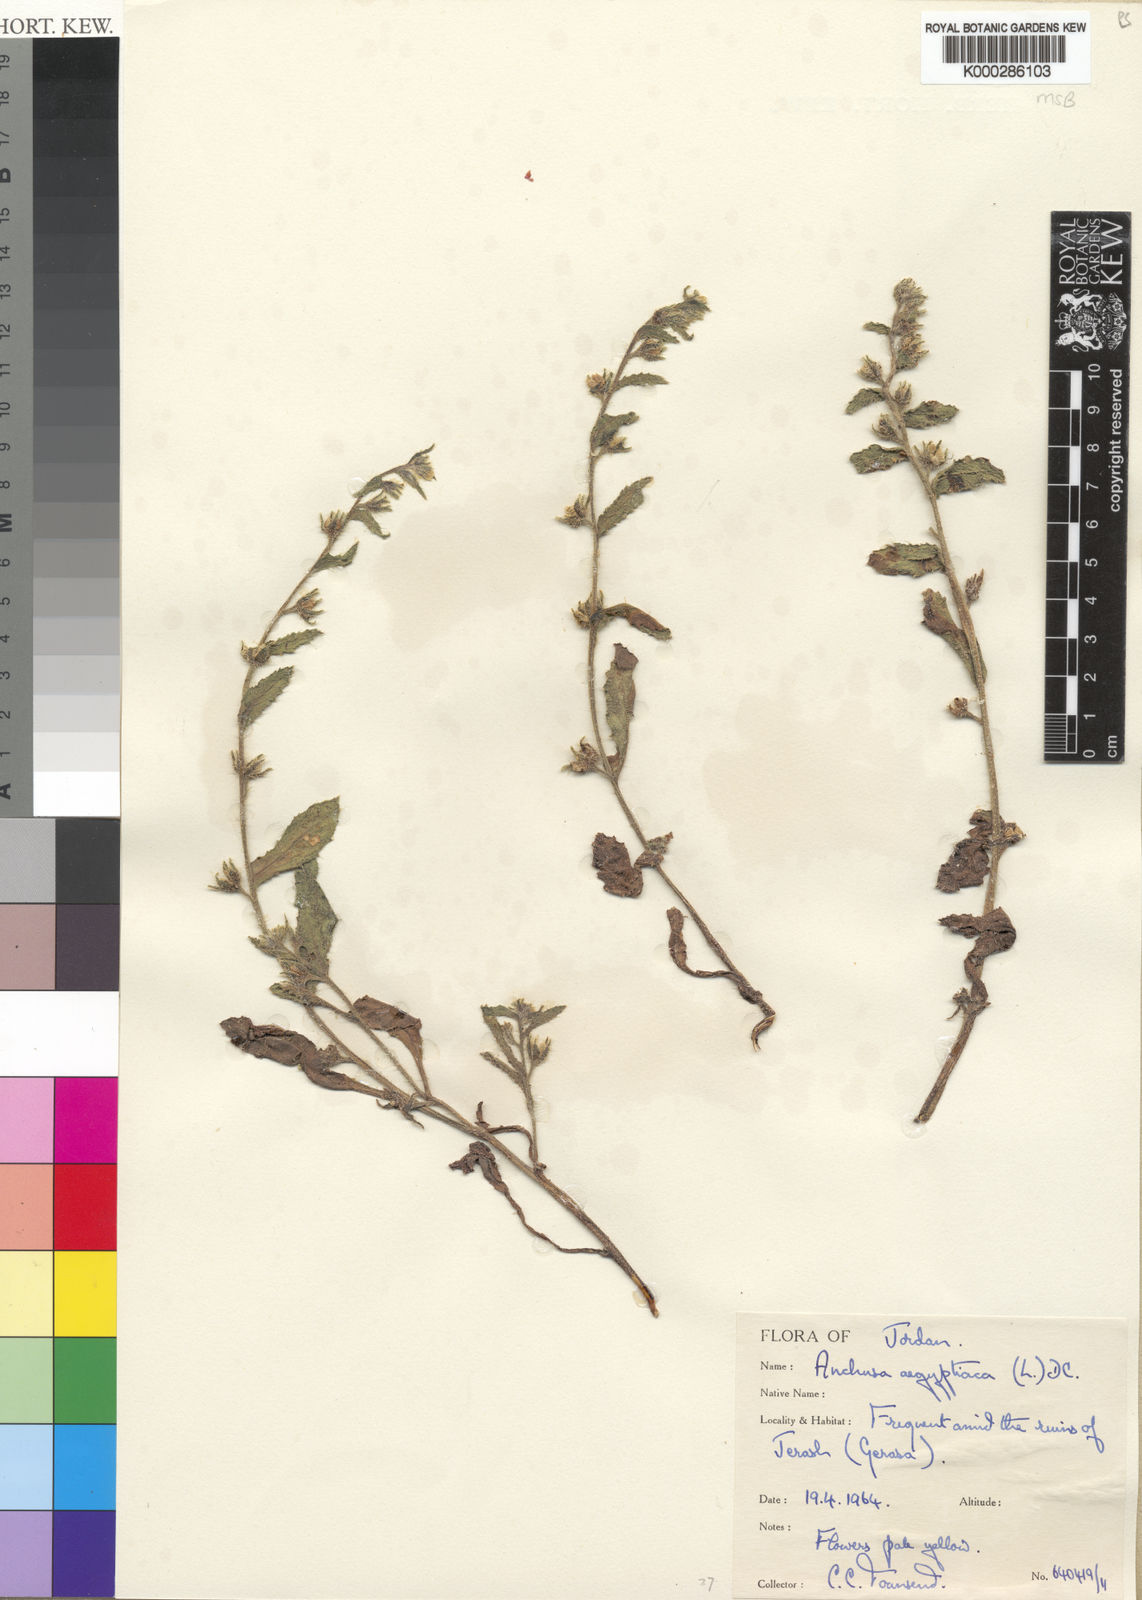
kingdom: Plantae
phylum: Tracheophyta
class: Magnoliopsida
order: Boraginales
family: Boraginaceae
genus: Lycopsis
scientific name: Lycopsis aegyptiaca
